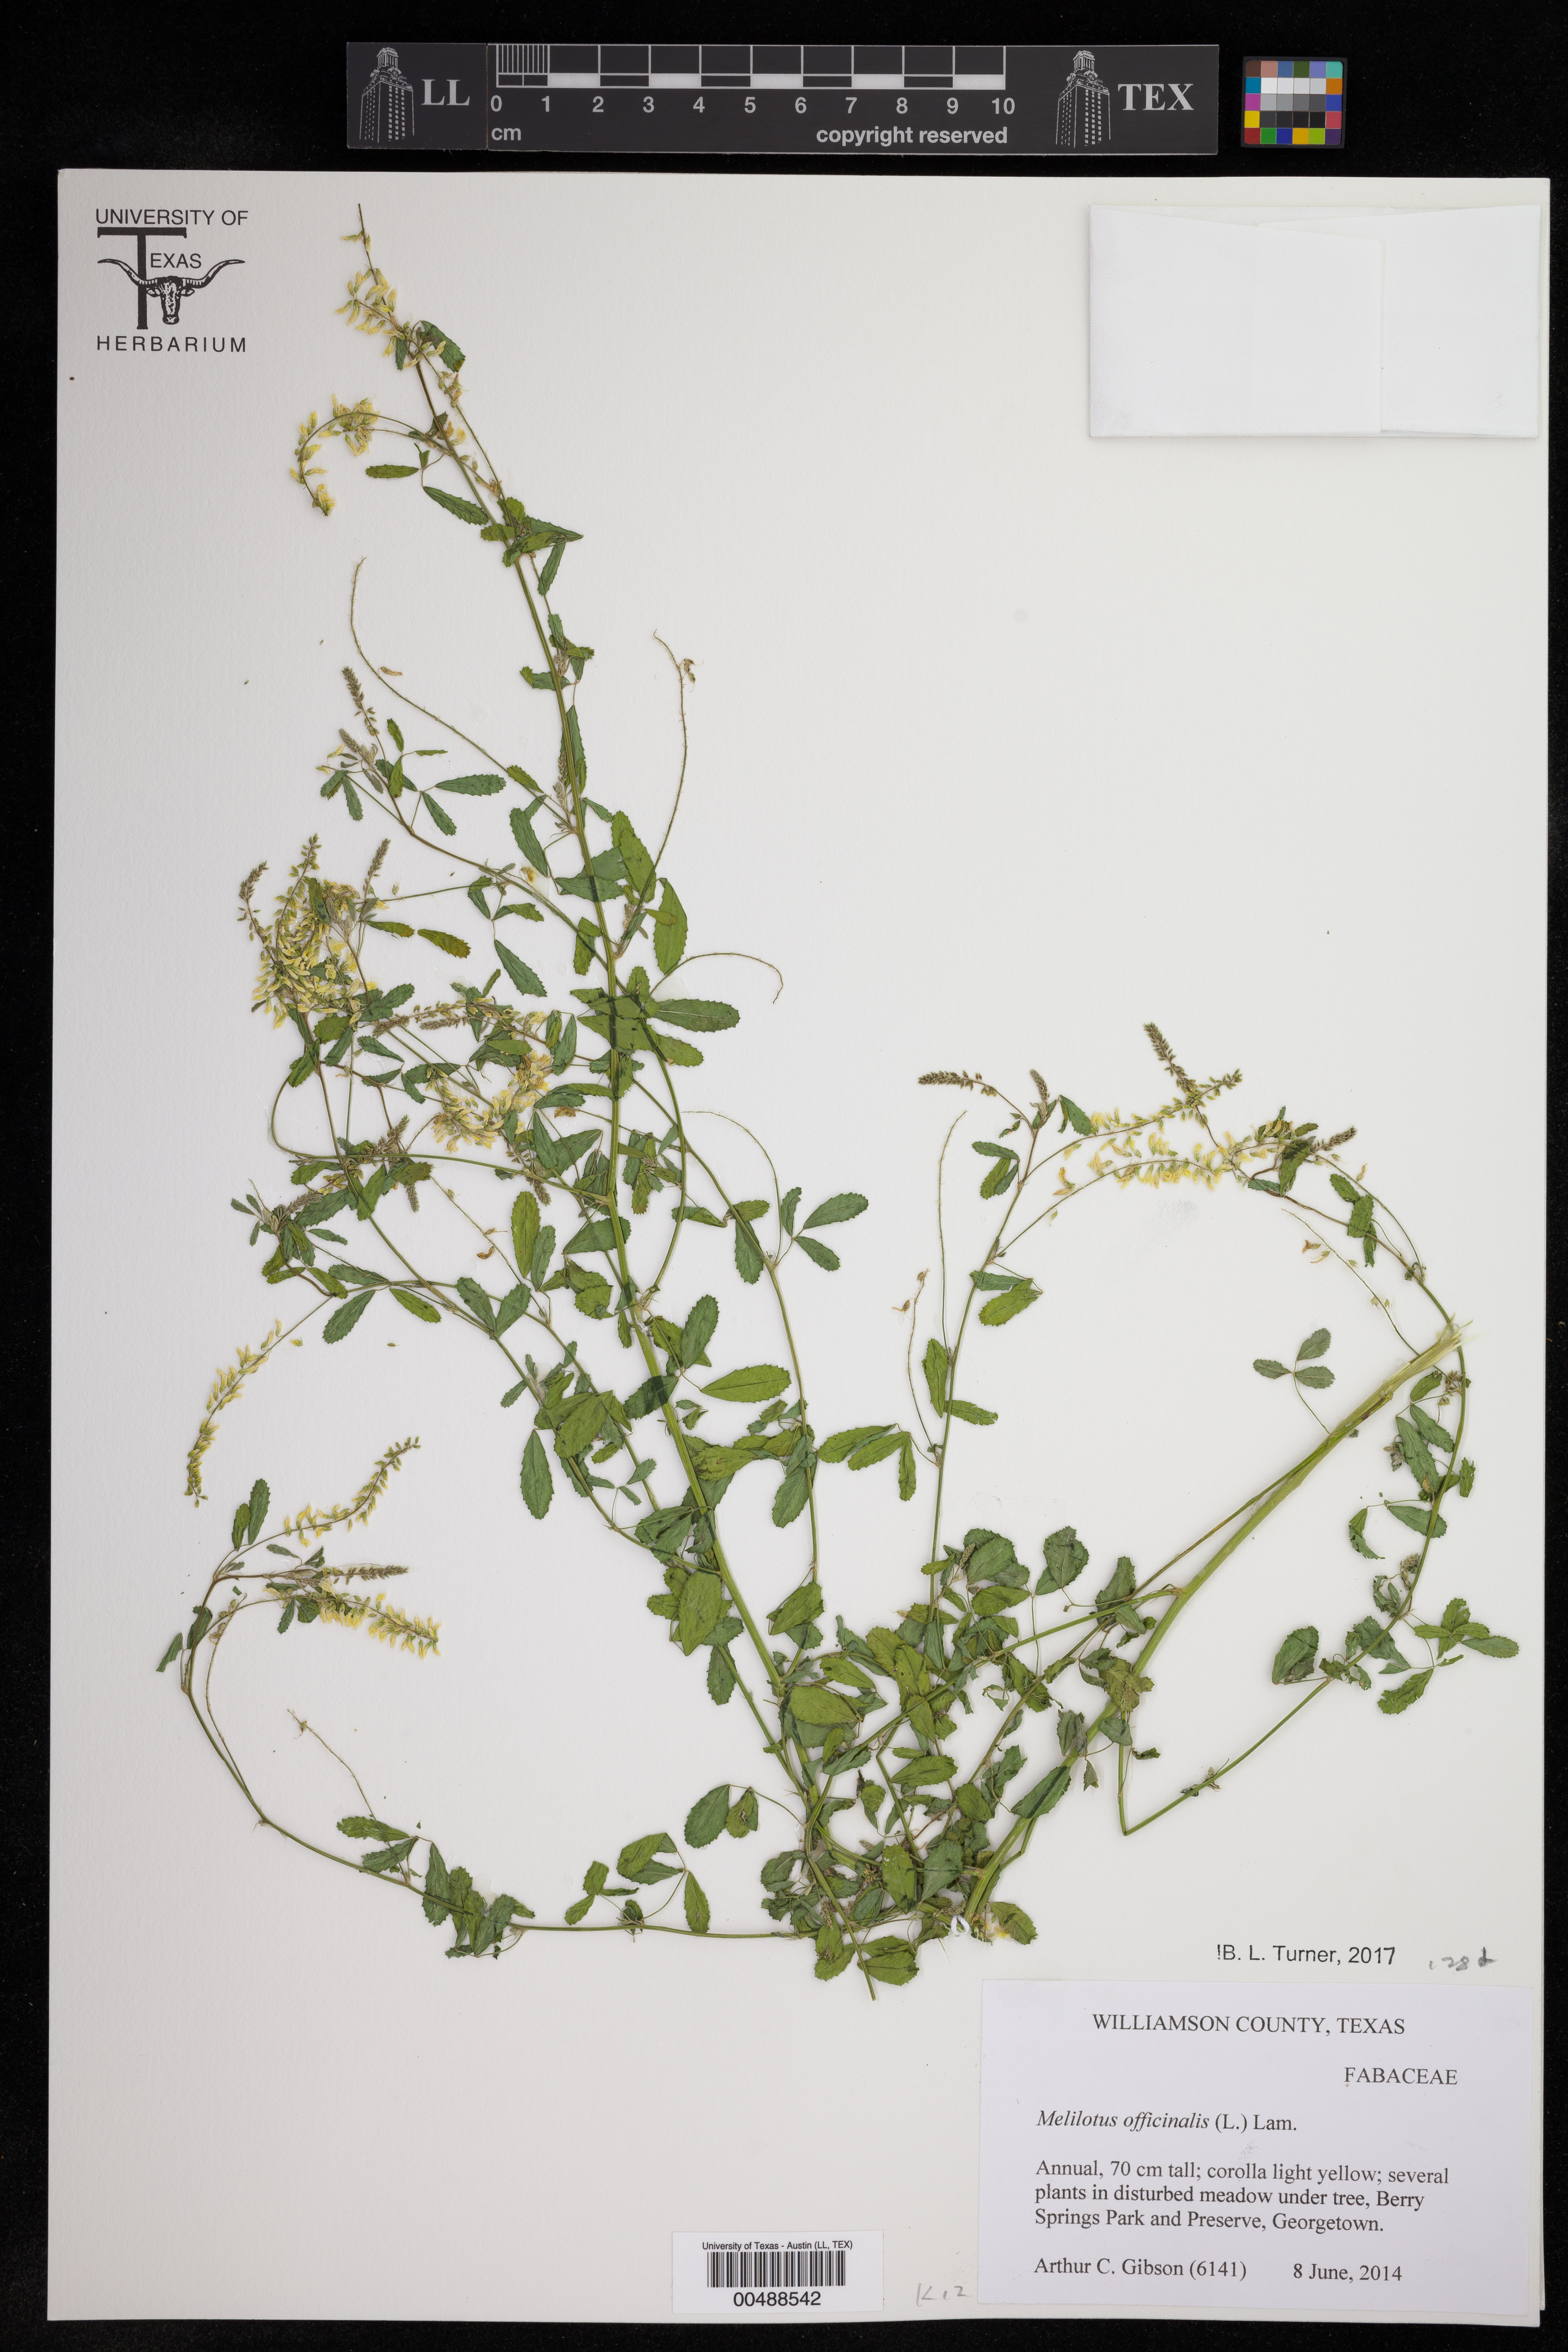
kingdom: Plantae
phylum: Tracheophyta
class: Magnoliopsida
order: Fabales
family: Fabaceae
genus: Melilotus
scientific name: Melilotus officinalis
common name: Sweetclover
